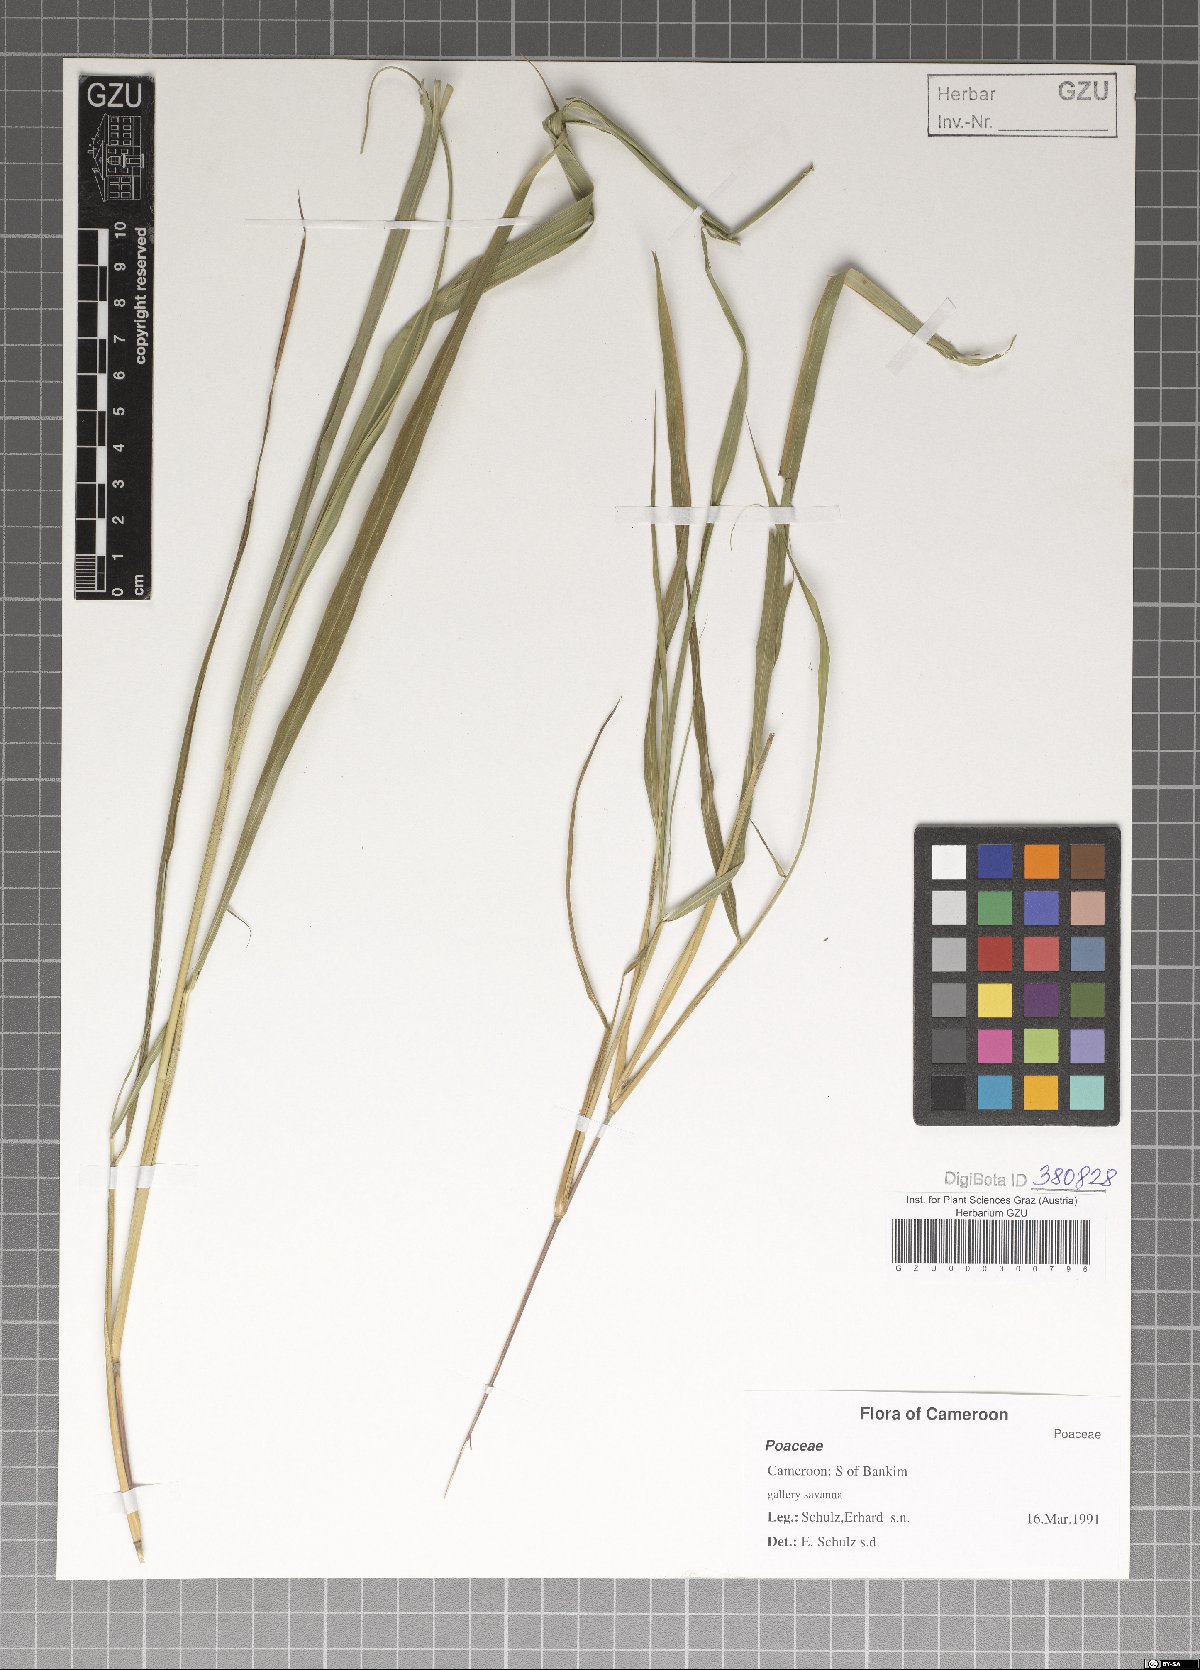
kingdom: Plantae
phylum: Tracheophyta
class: Liliopsida
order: Poales
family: Poaceae
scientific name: Poaceae
